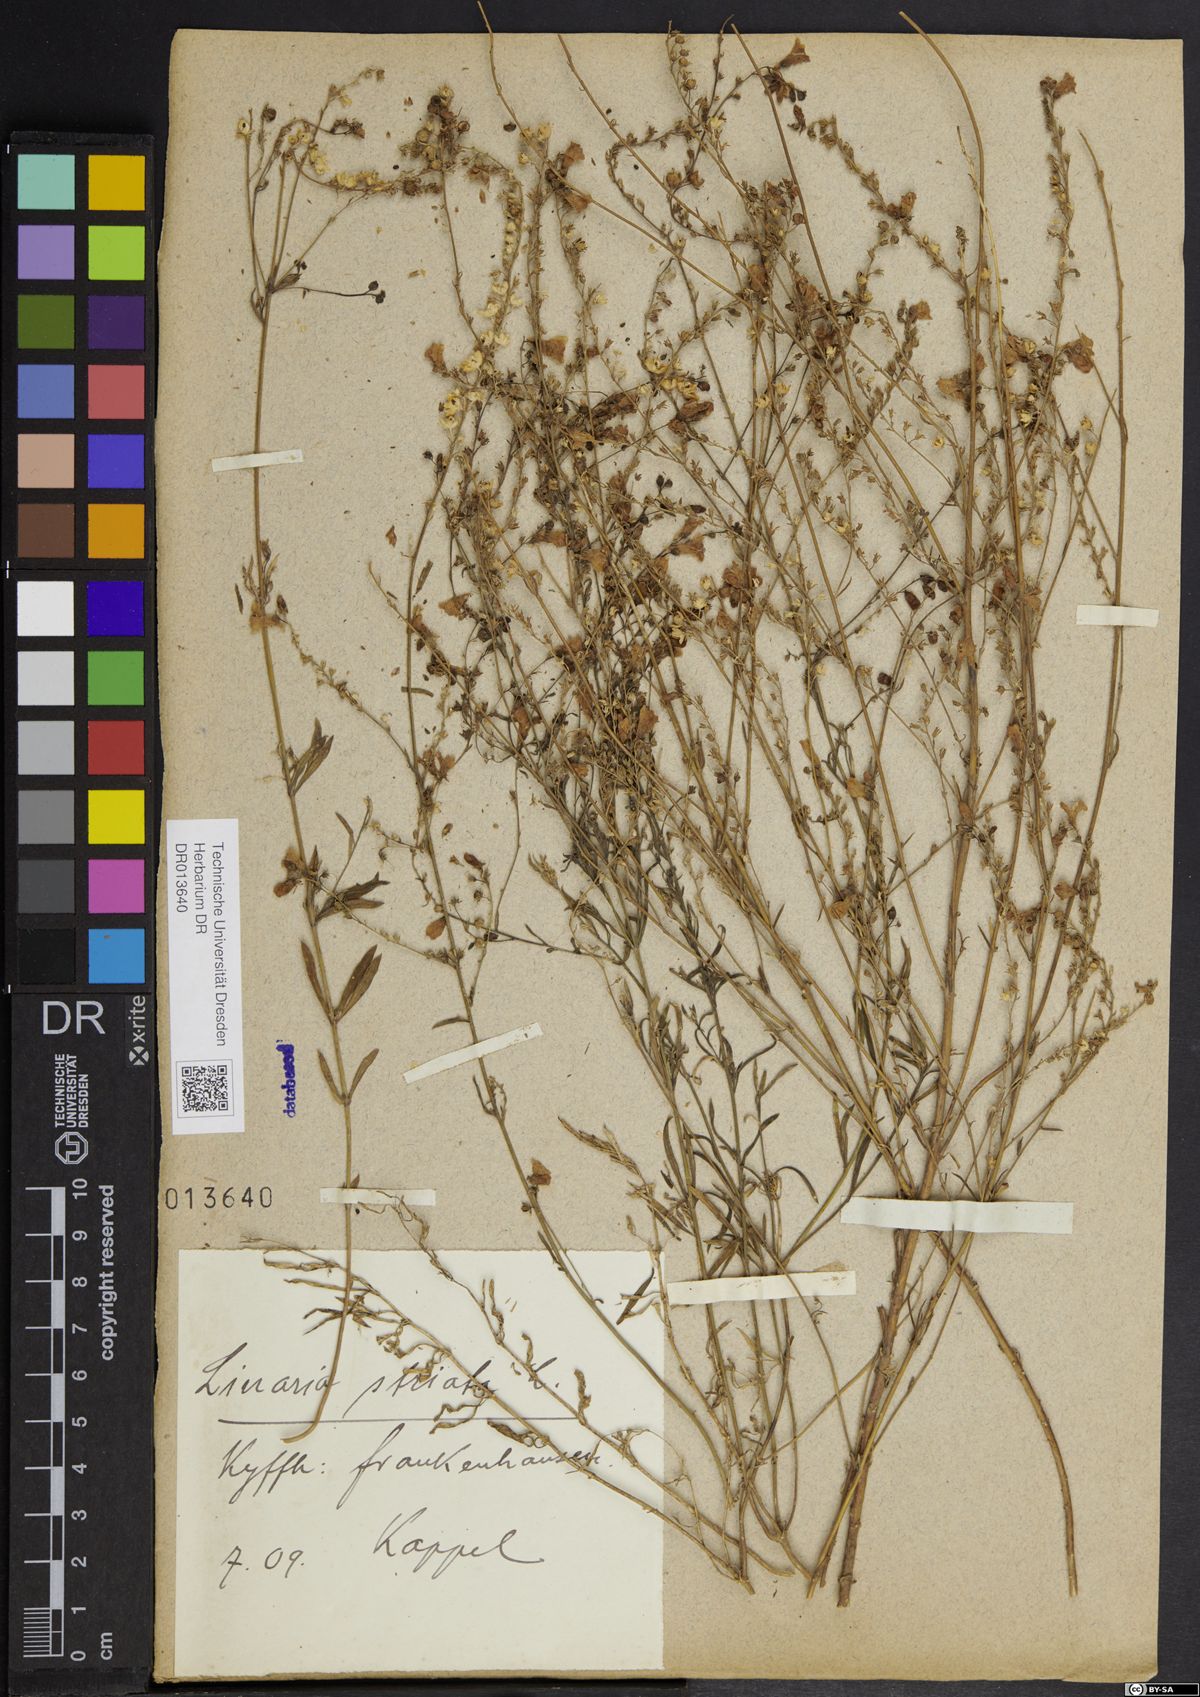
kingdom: Plantae
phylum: Tracheophyta
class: Magnoliopsida
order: Lamiales
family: Plantaginaceae
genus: Linaria
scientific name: Linaria repens
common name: Pale toadflax
